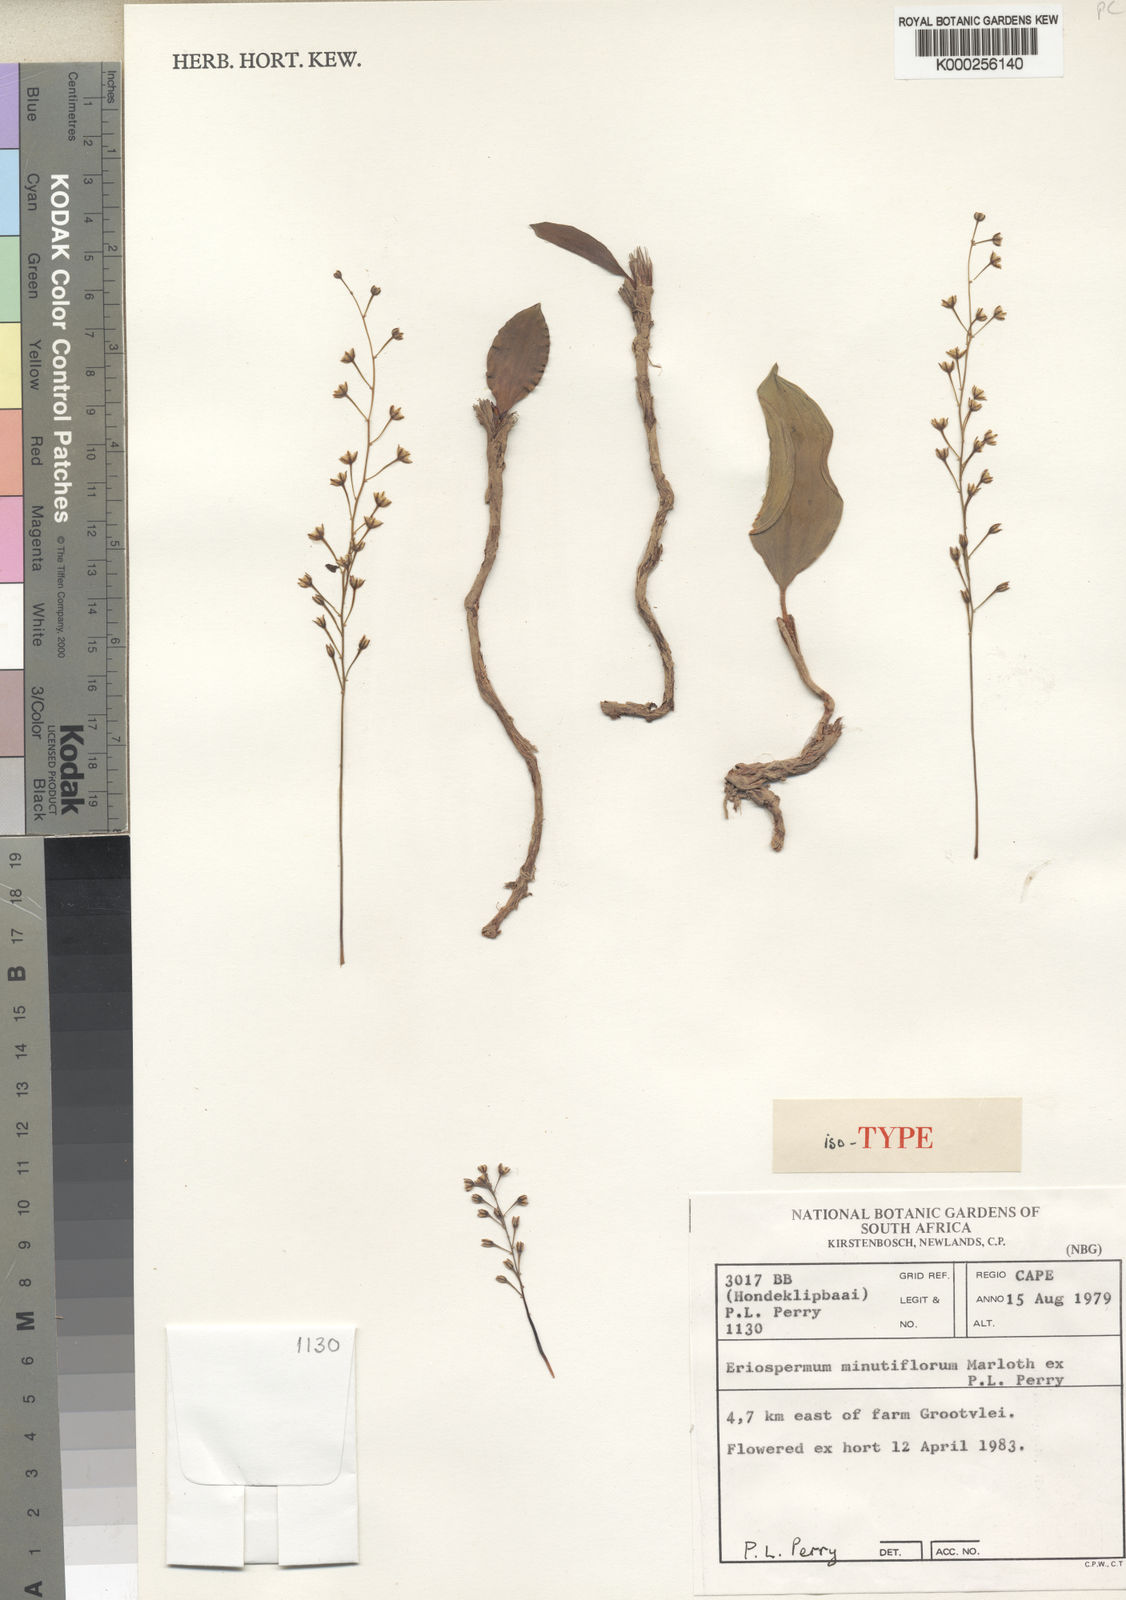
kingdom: Plantae
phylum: Tracheophyta
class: Liliopsida
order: Asparagales
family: Asparagaceae
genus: Eriospermum
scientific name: Eriospermum minutiflorum
